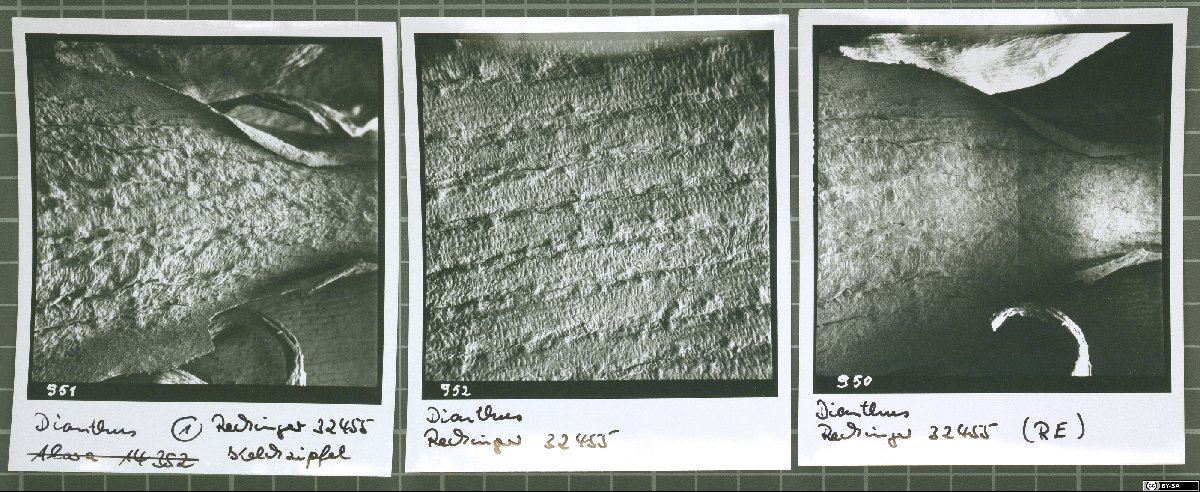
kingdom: Plantae
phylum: Tracheophyta
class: Magnoliopsida
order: Caryophyllales
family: Caryophyllaceae
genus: Dianthus
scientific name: Dianthus nangarharicus
